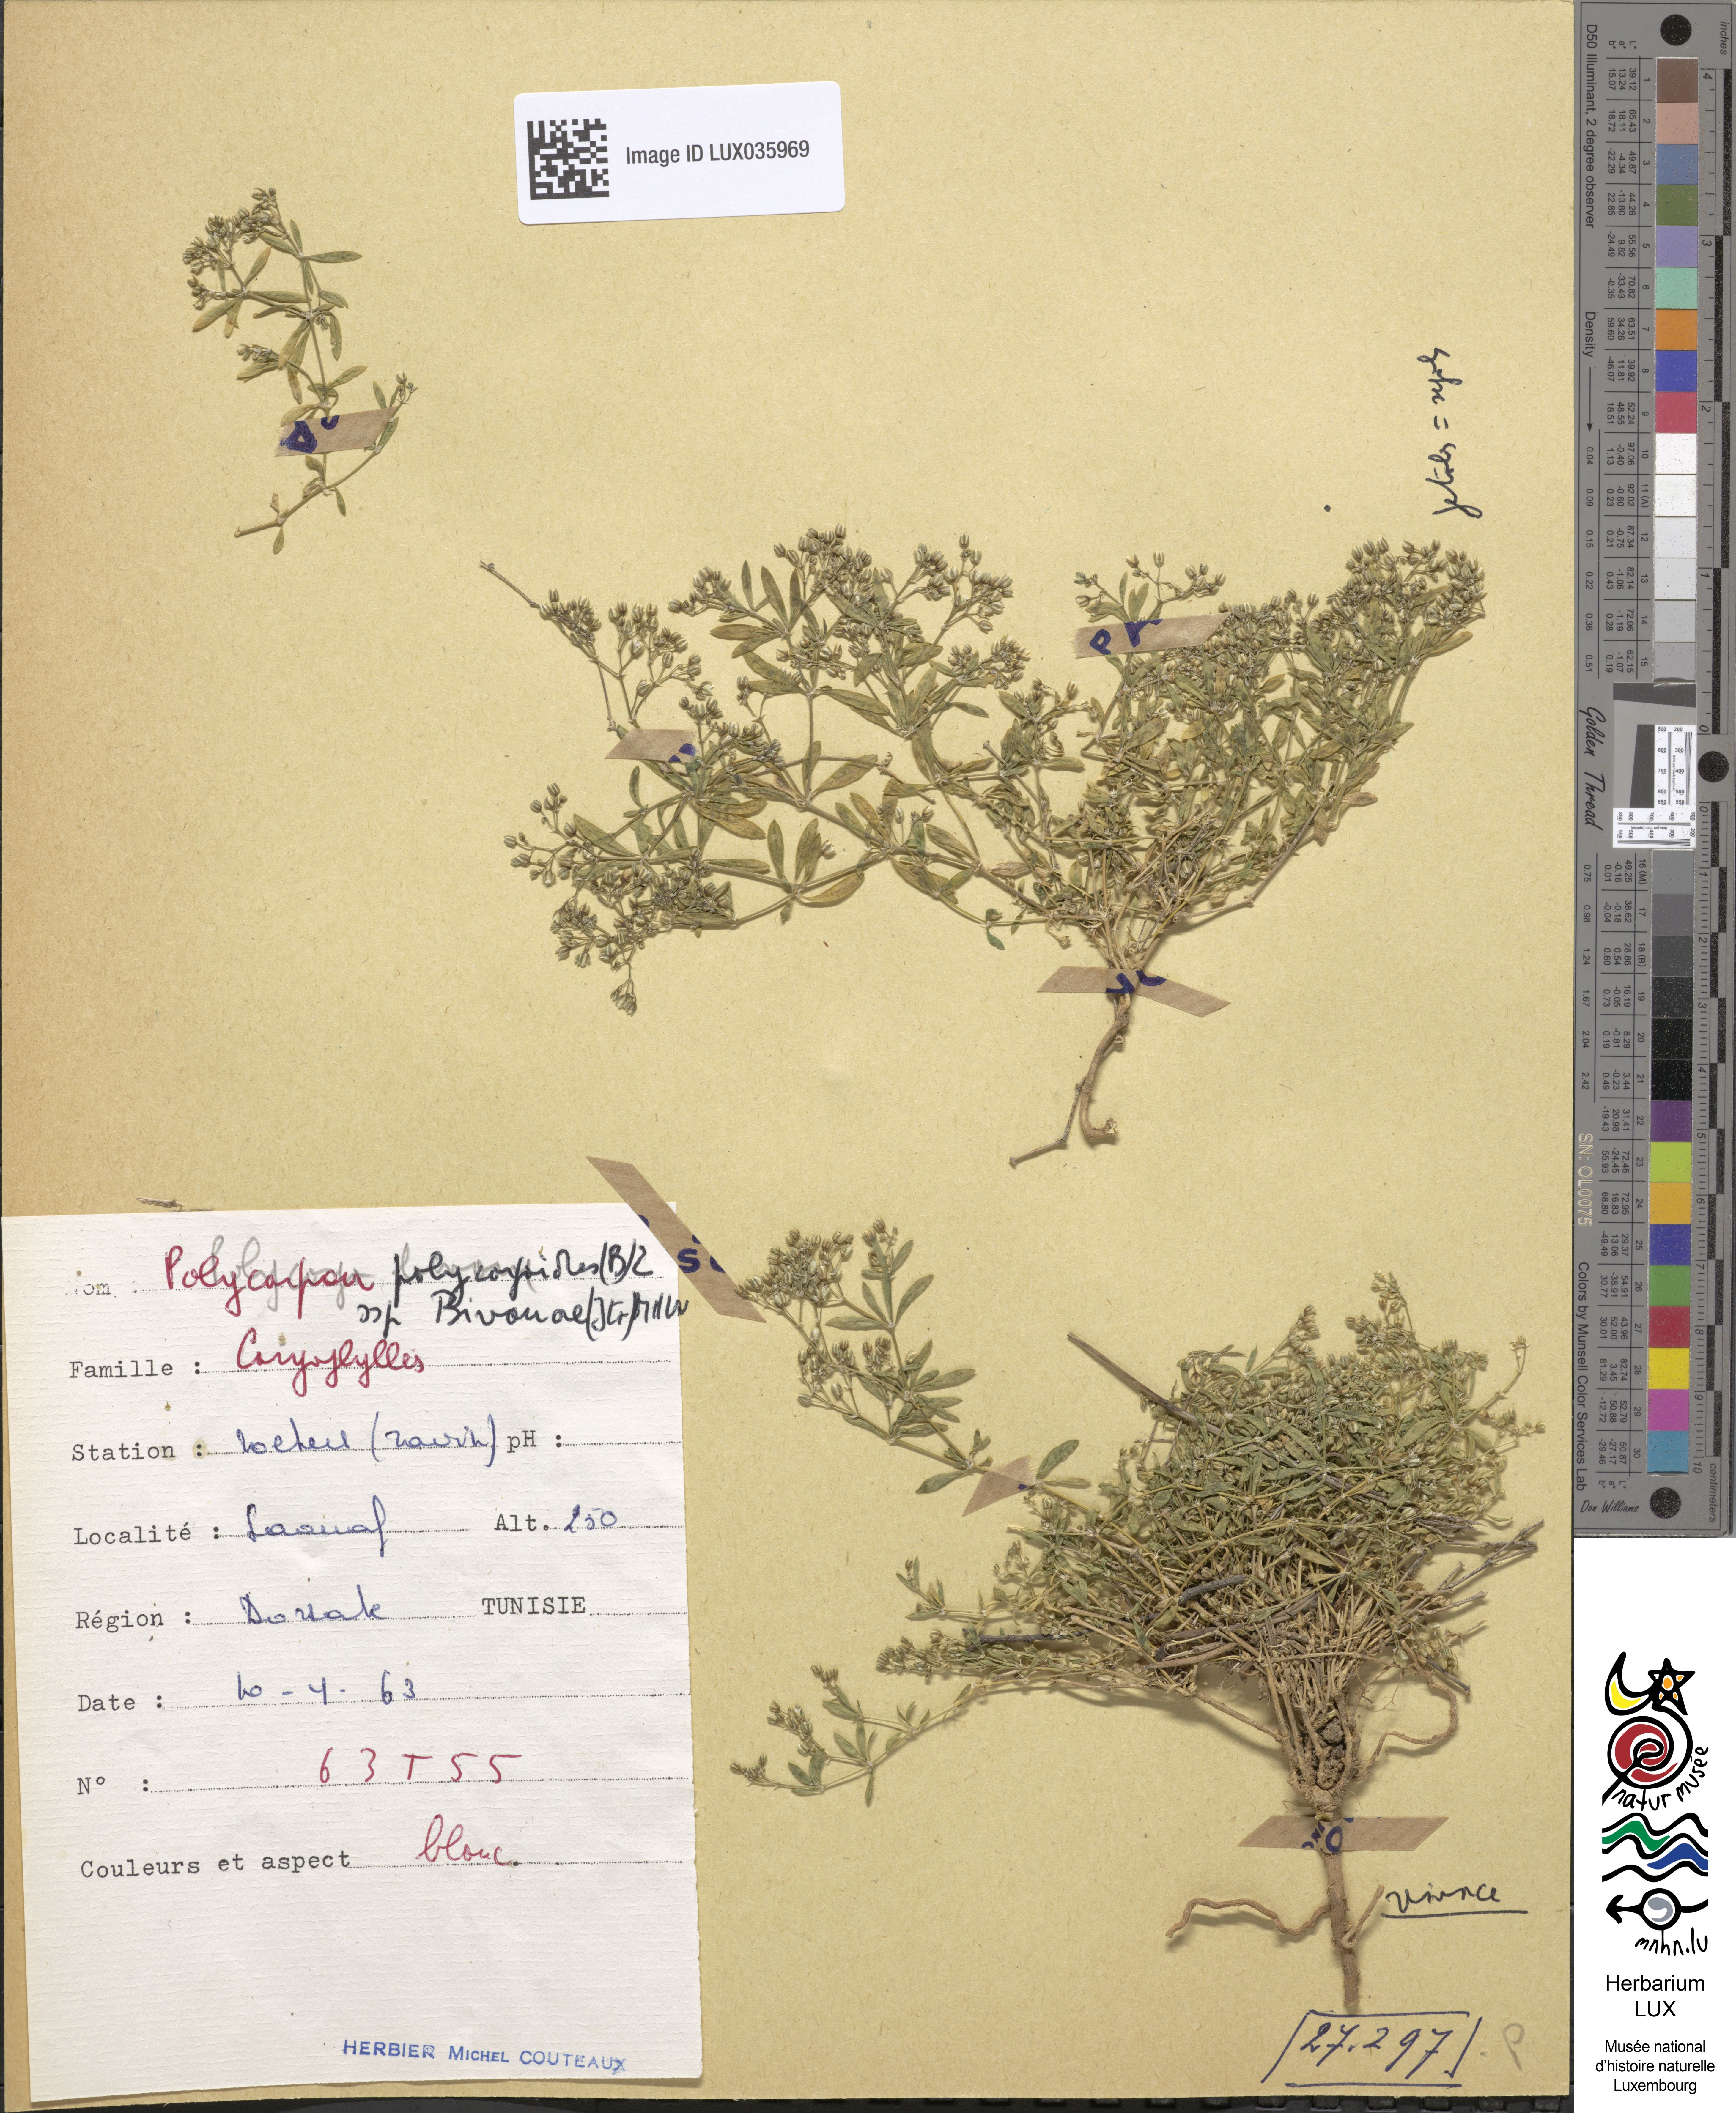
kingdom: Plantae
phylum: Tracheophyta
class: Magnoliopsida
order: Caryophyllales
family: Caryophyllaceae
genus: Polycarpon
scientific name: Polycarpon polycarpoides
